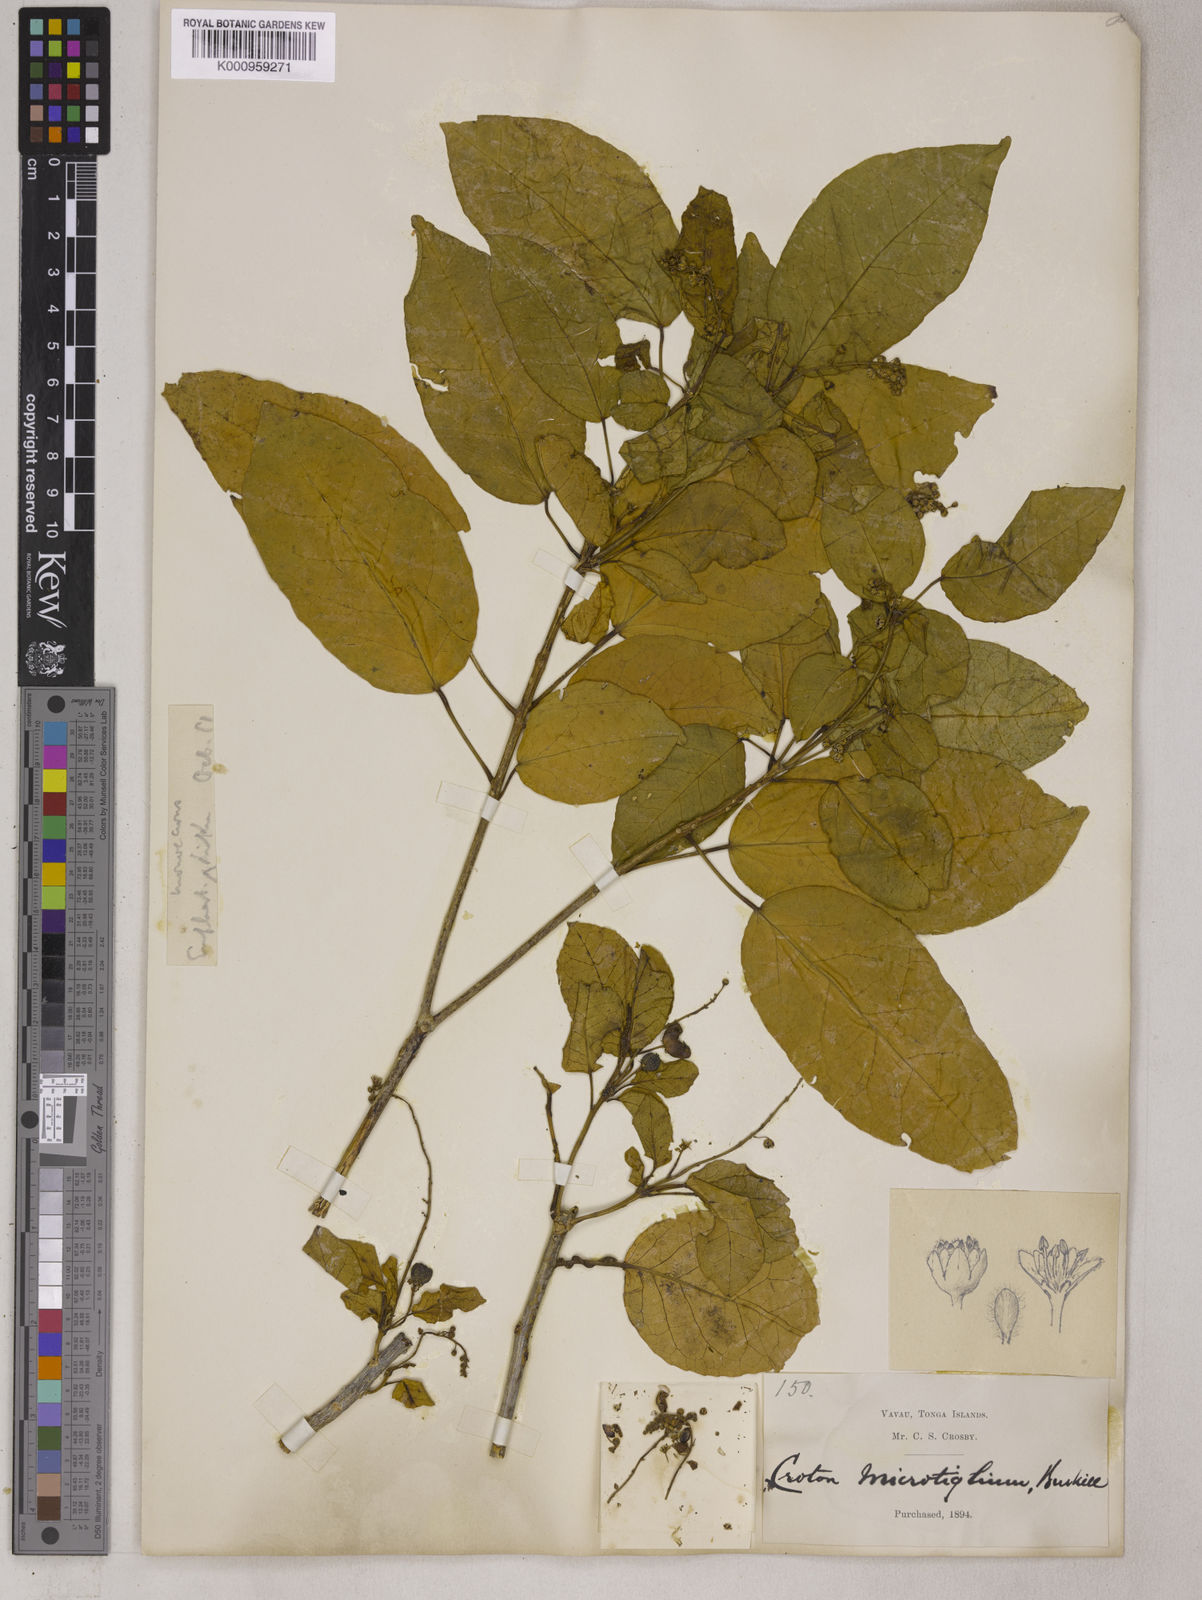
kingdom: Plantae
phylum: Tracheophyta
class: Magnoliopsida
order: Malpighiales
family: Euphorbiaceae
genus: Croton
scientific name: Croton
